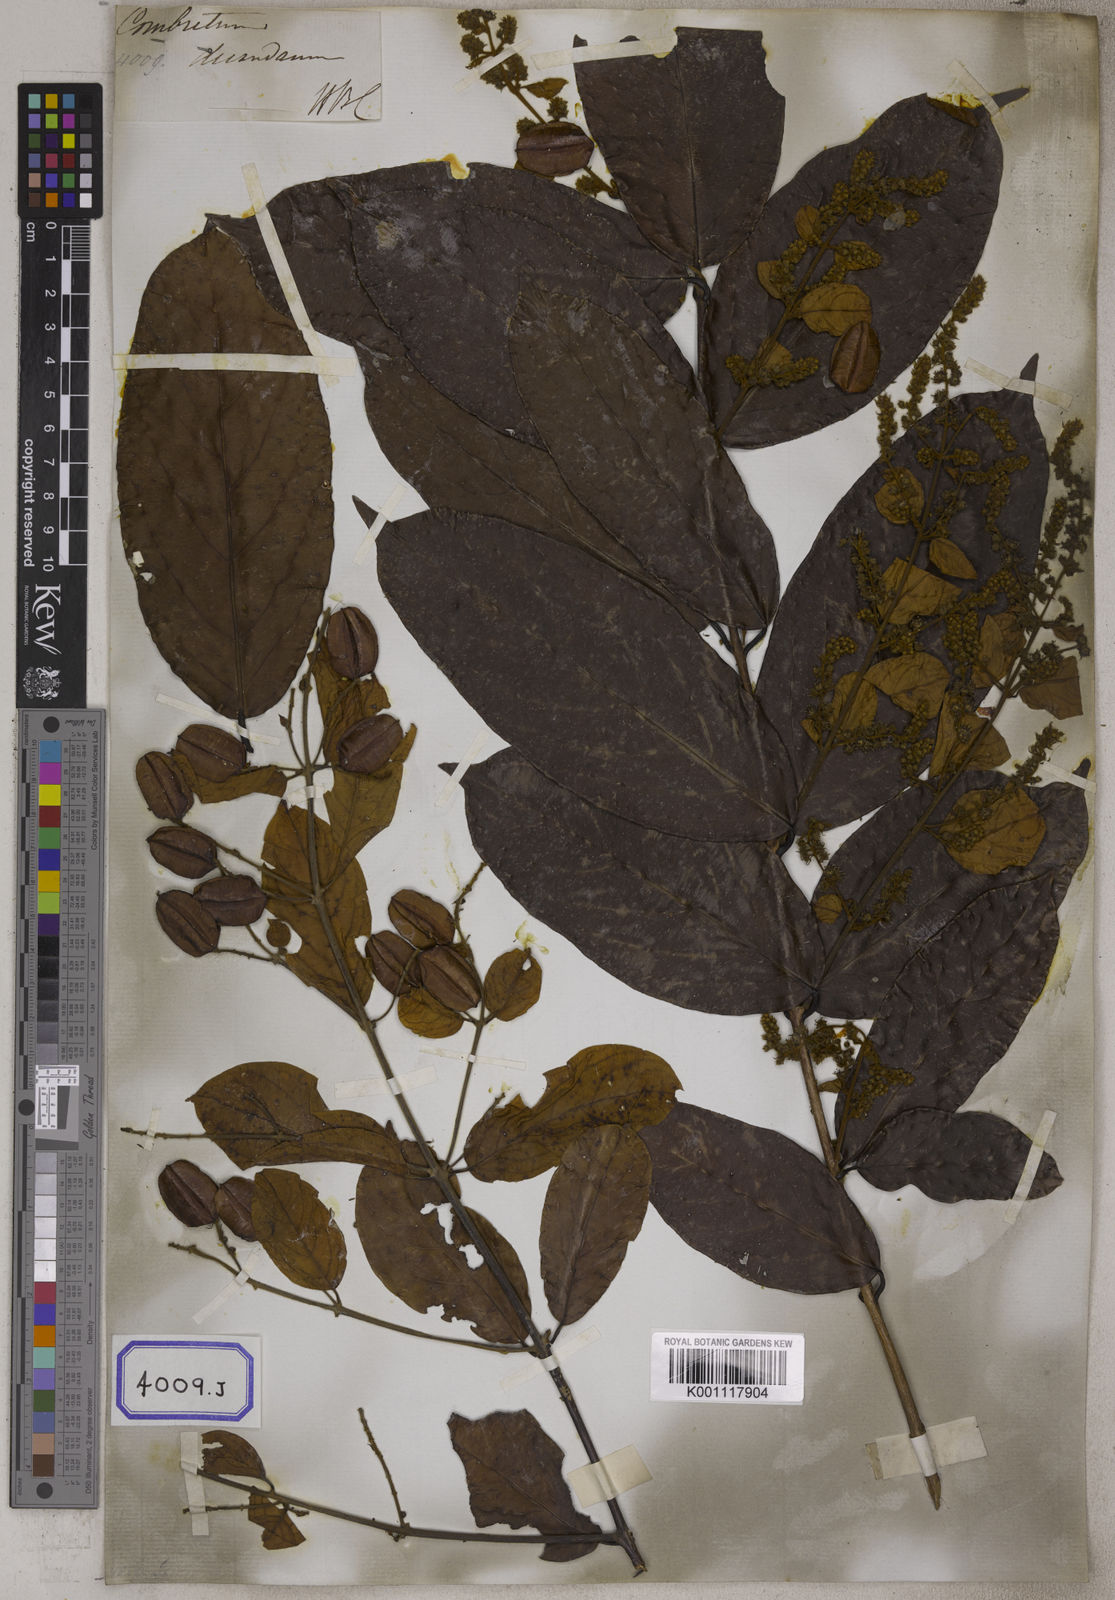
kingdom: Plantae
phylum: Tracheophyta
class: Magnoliopsida
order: Myrtales
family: Combretaceae
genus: Combretum
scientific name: Combretum decandrum
